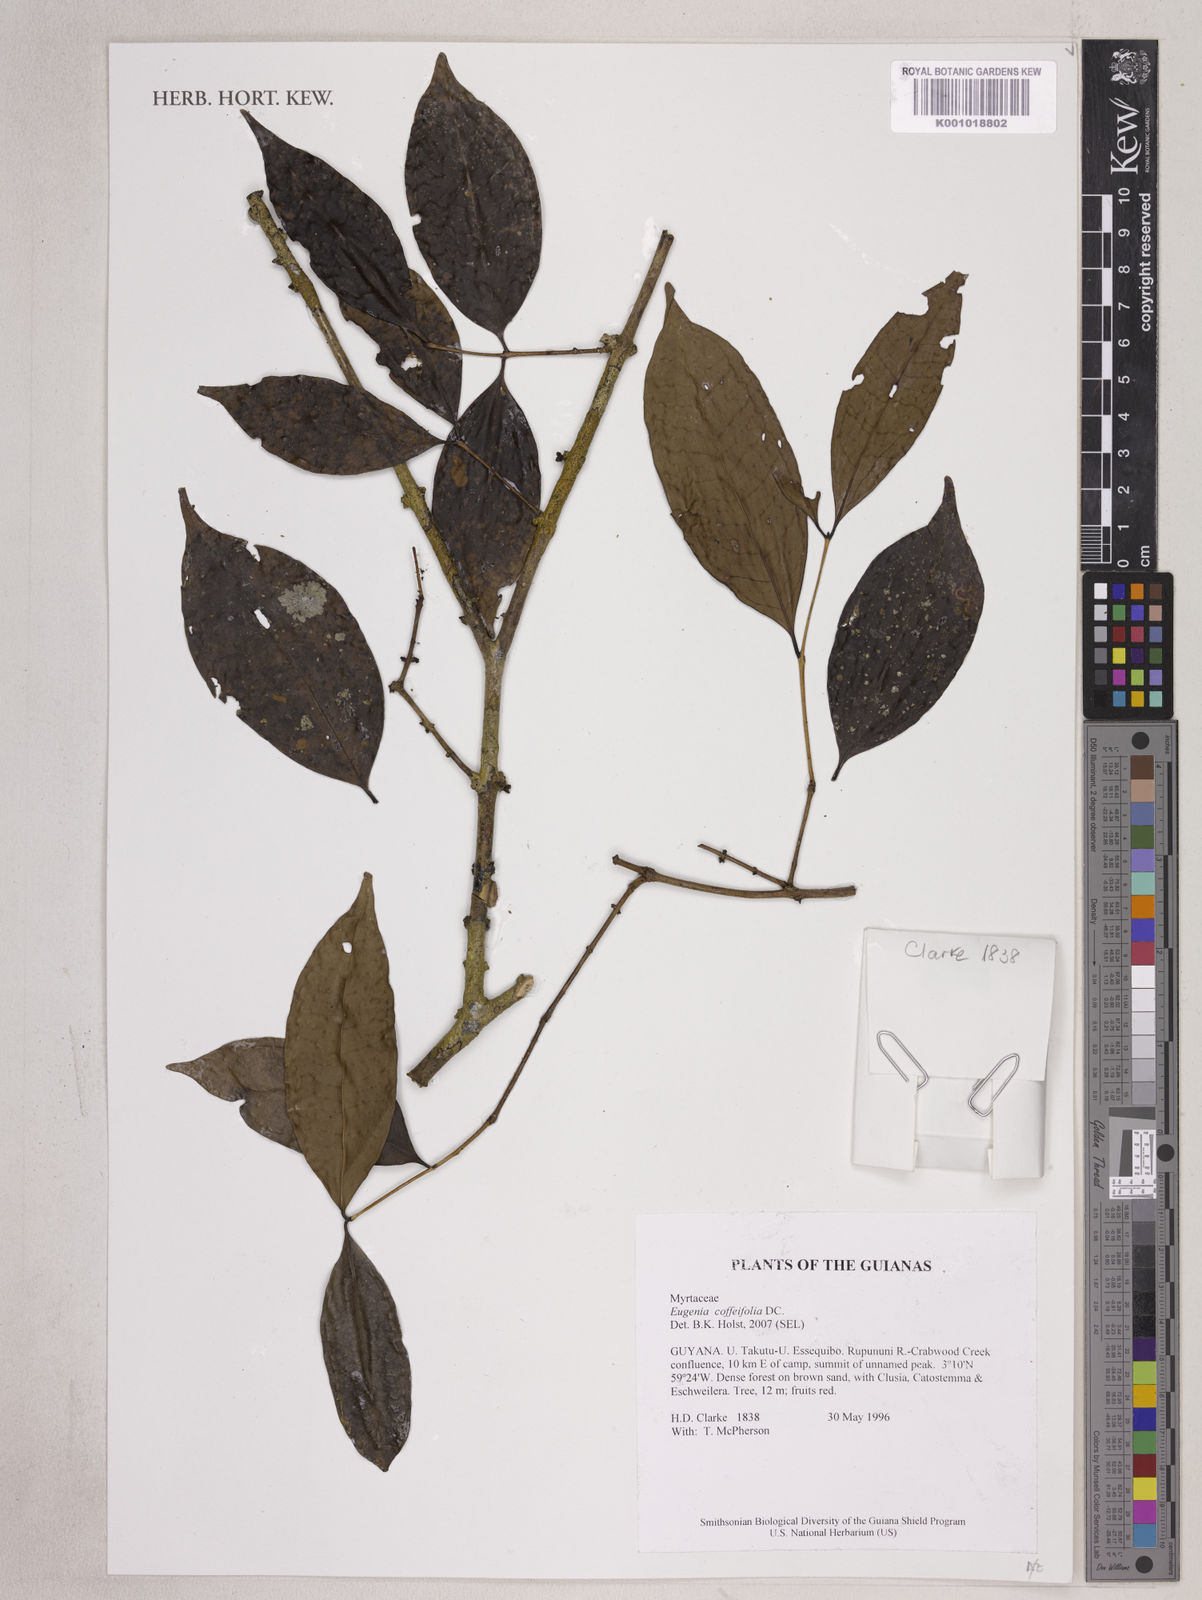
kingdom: Plantae
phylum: Tracheophyta
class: Magnoliopsida
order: Myrtales
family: Myrtaceae
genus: Eugenia
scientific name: Eugenia coffeifolia
